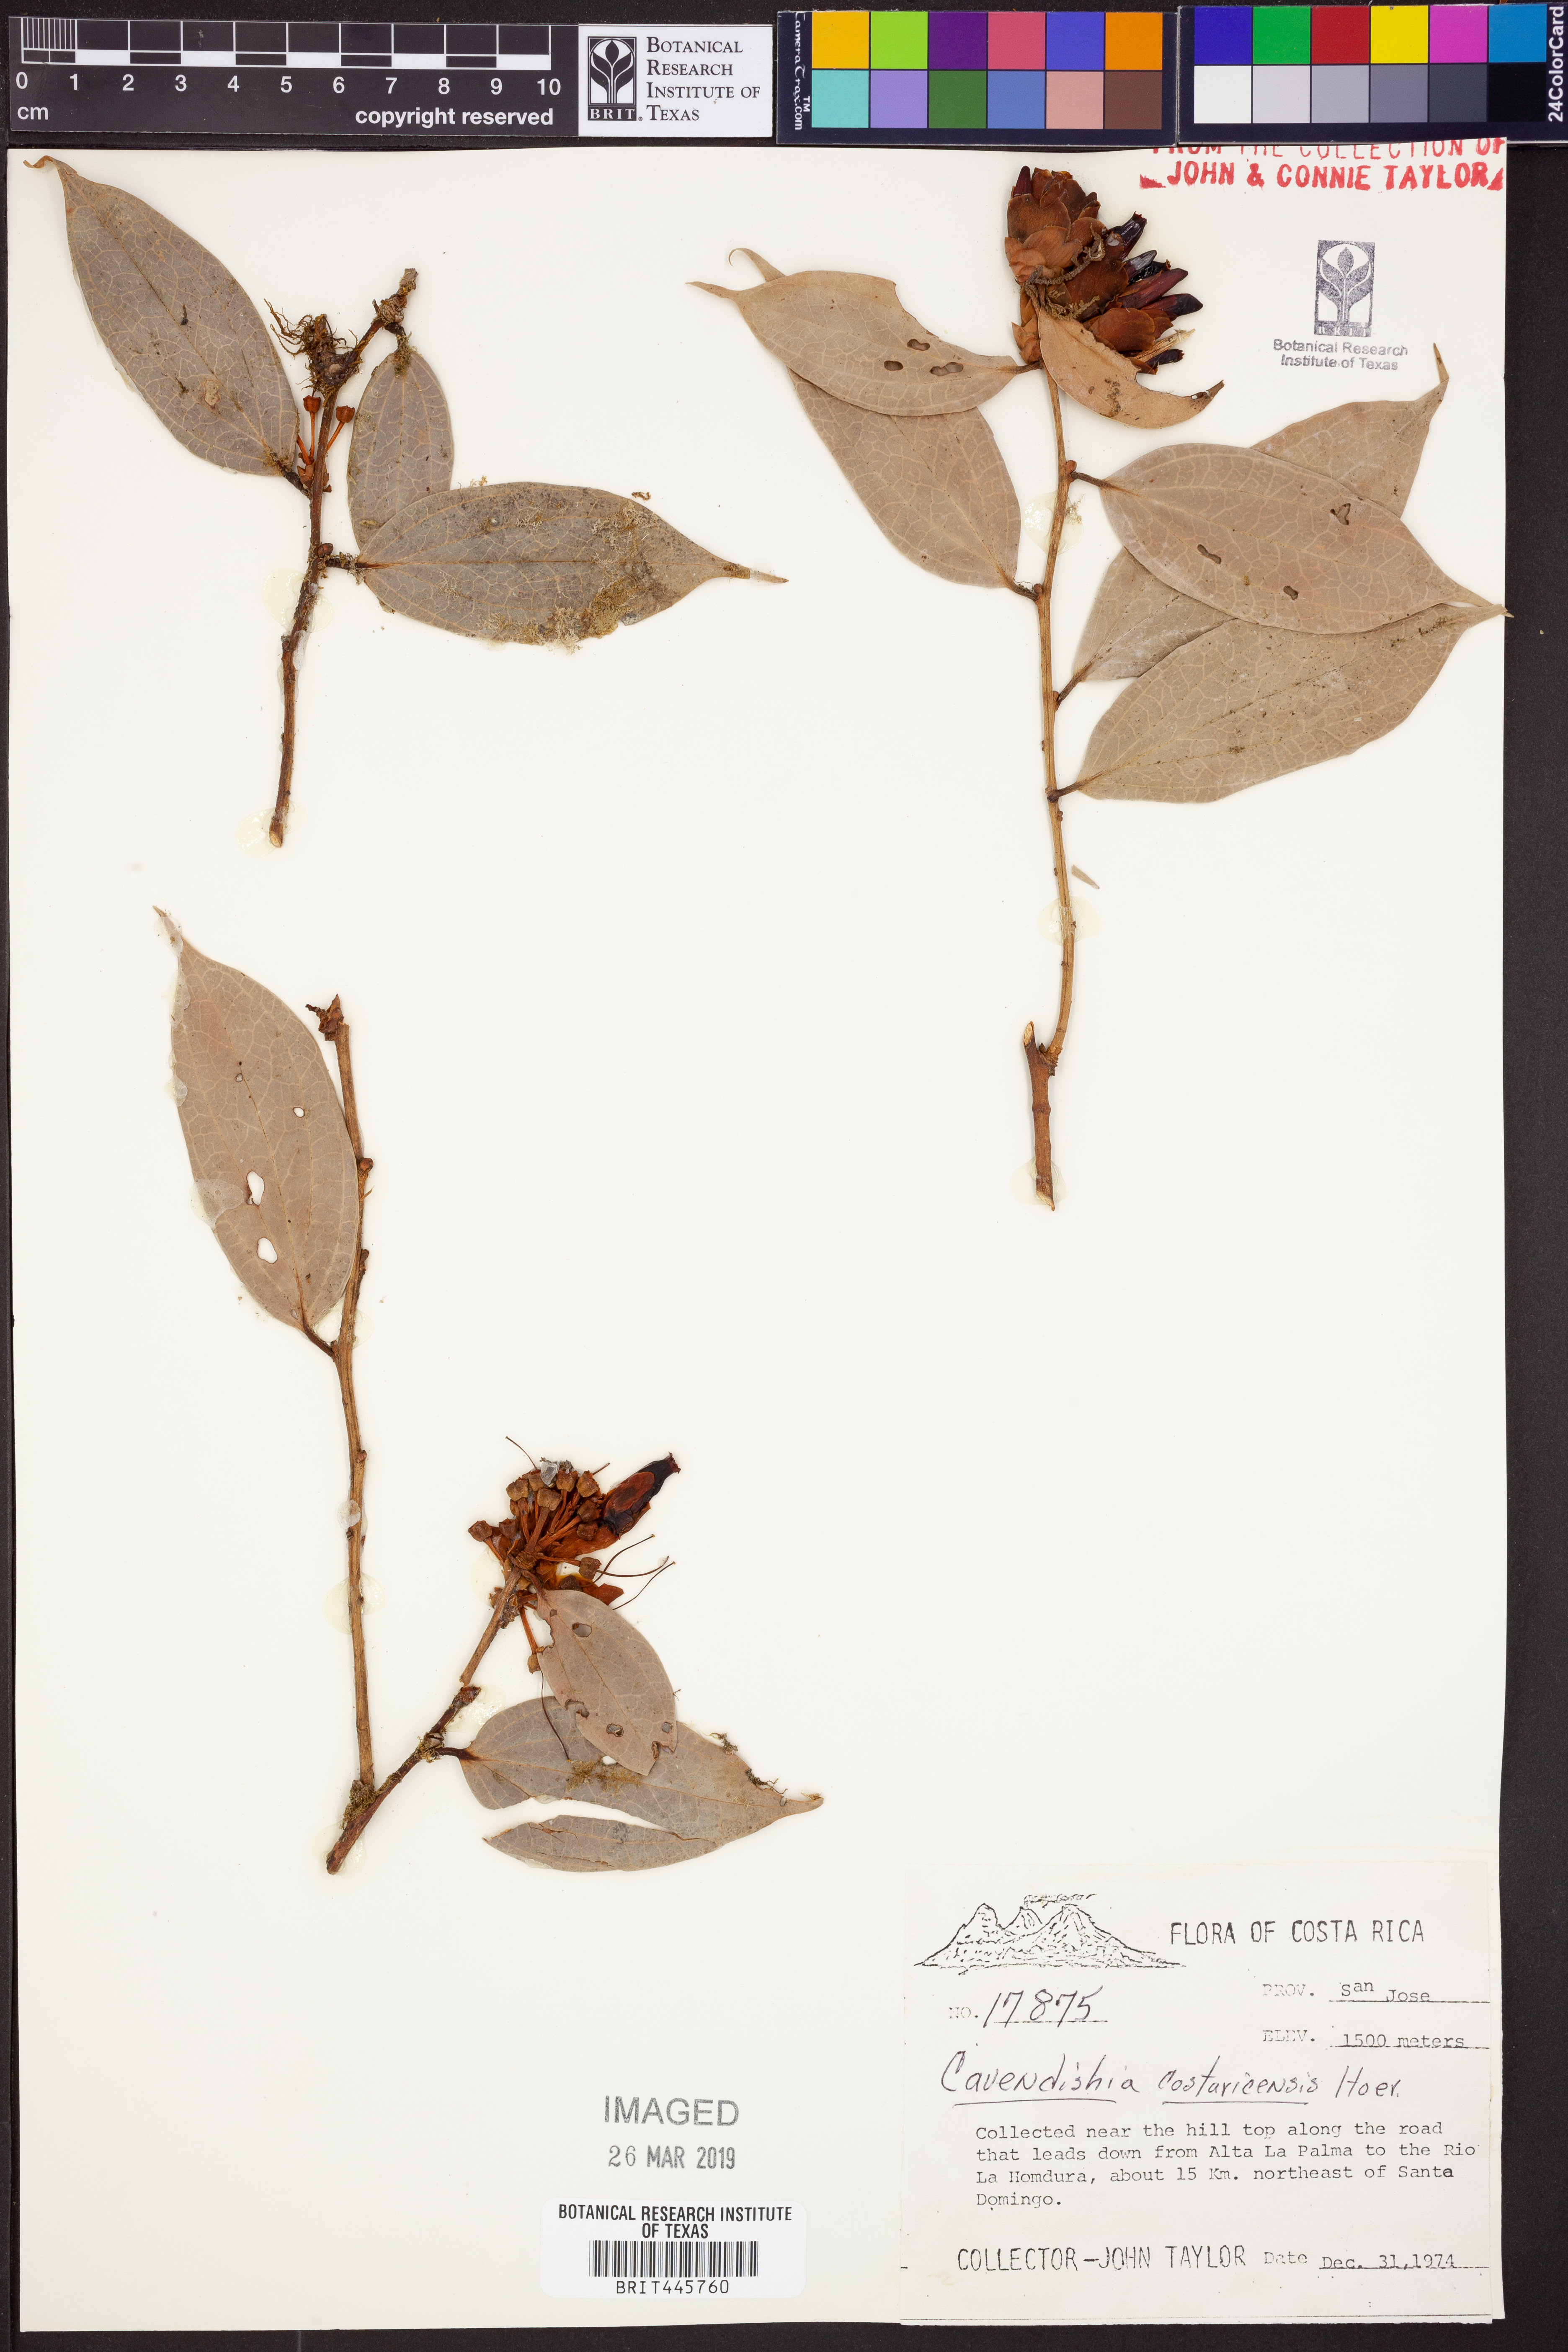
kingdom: Plantae
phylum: Tracheophyta
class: Magnoliopsida
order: Ericales
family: Ericaceae
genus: Cavendishia
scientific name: Cavendishia bracteata
